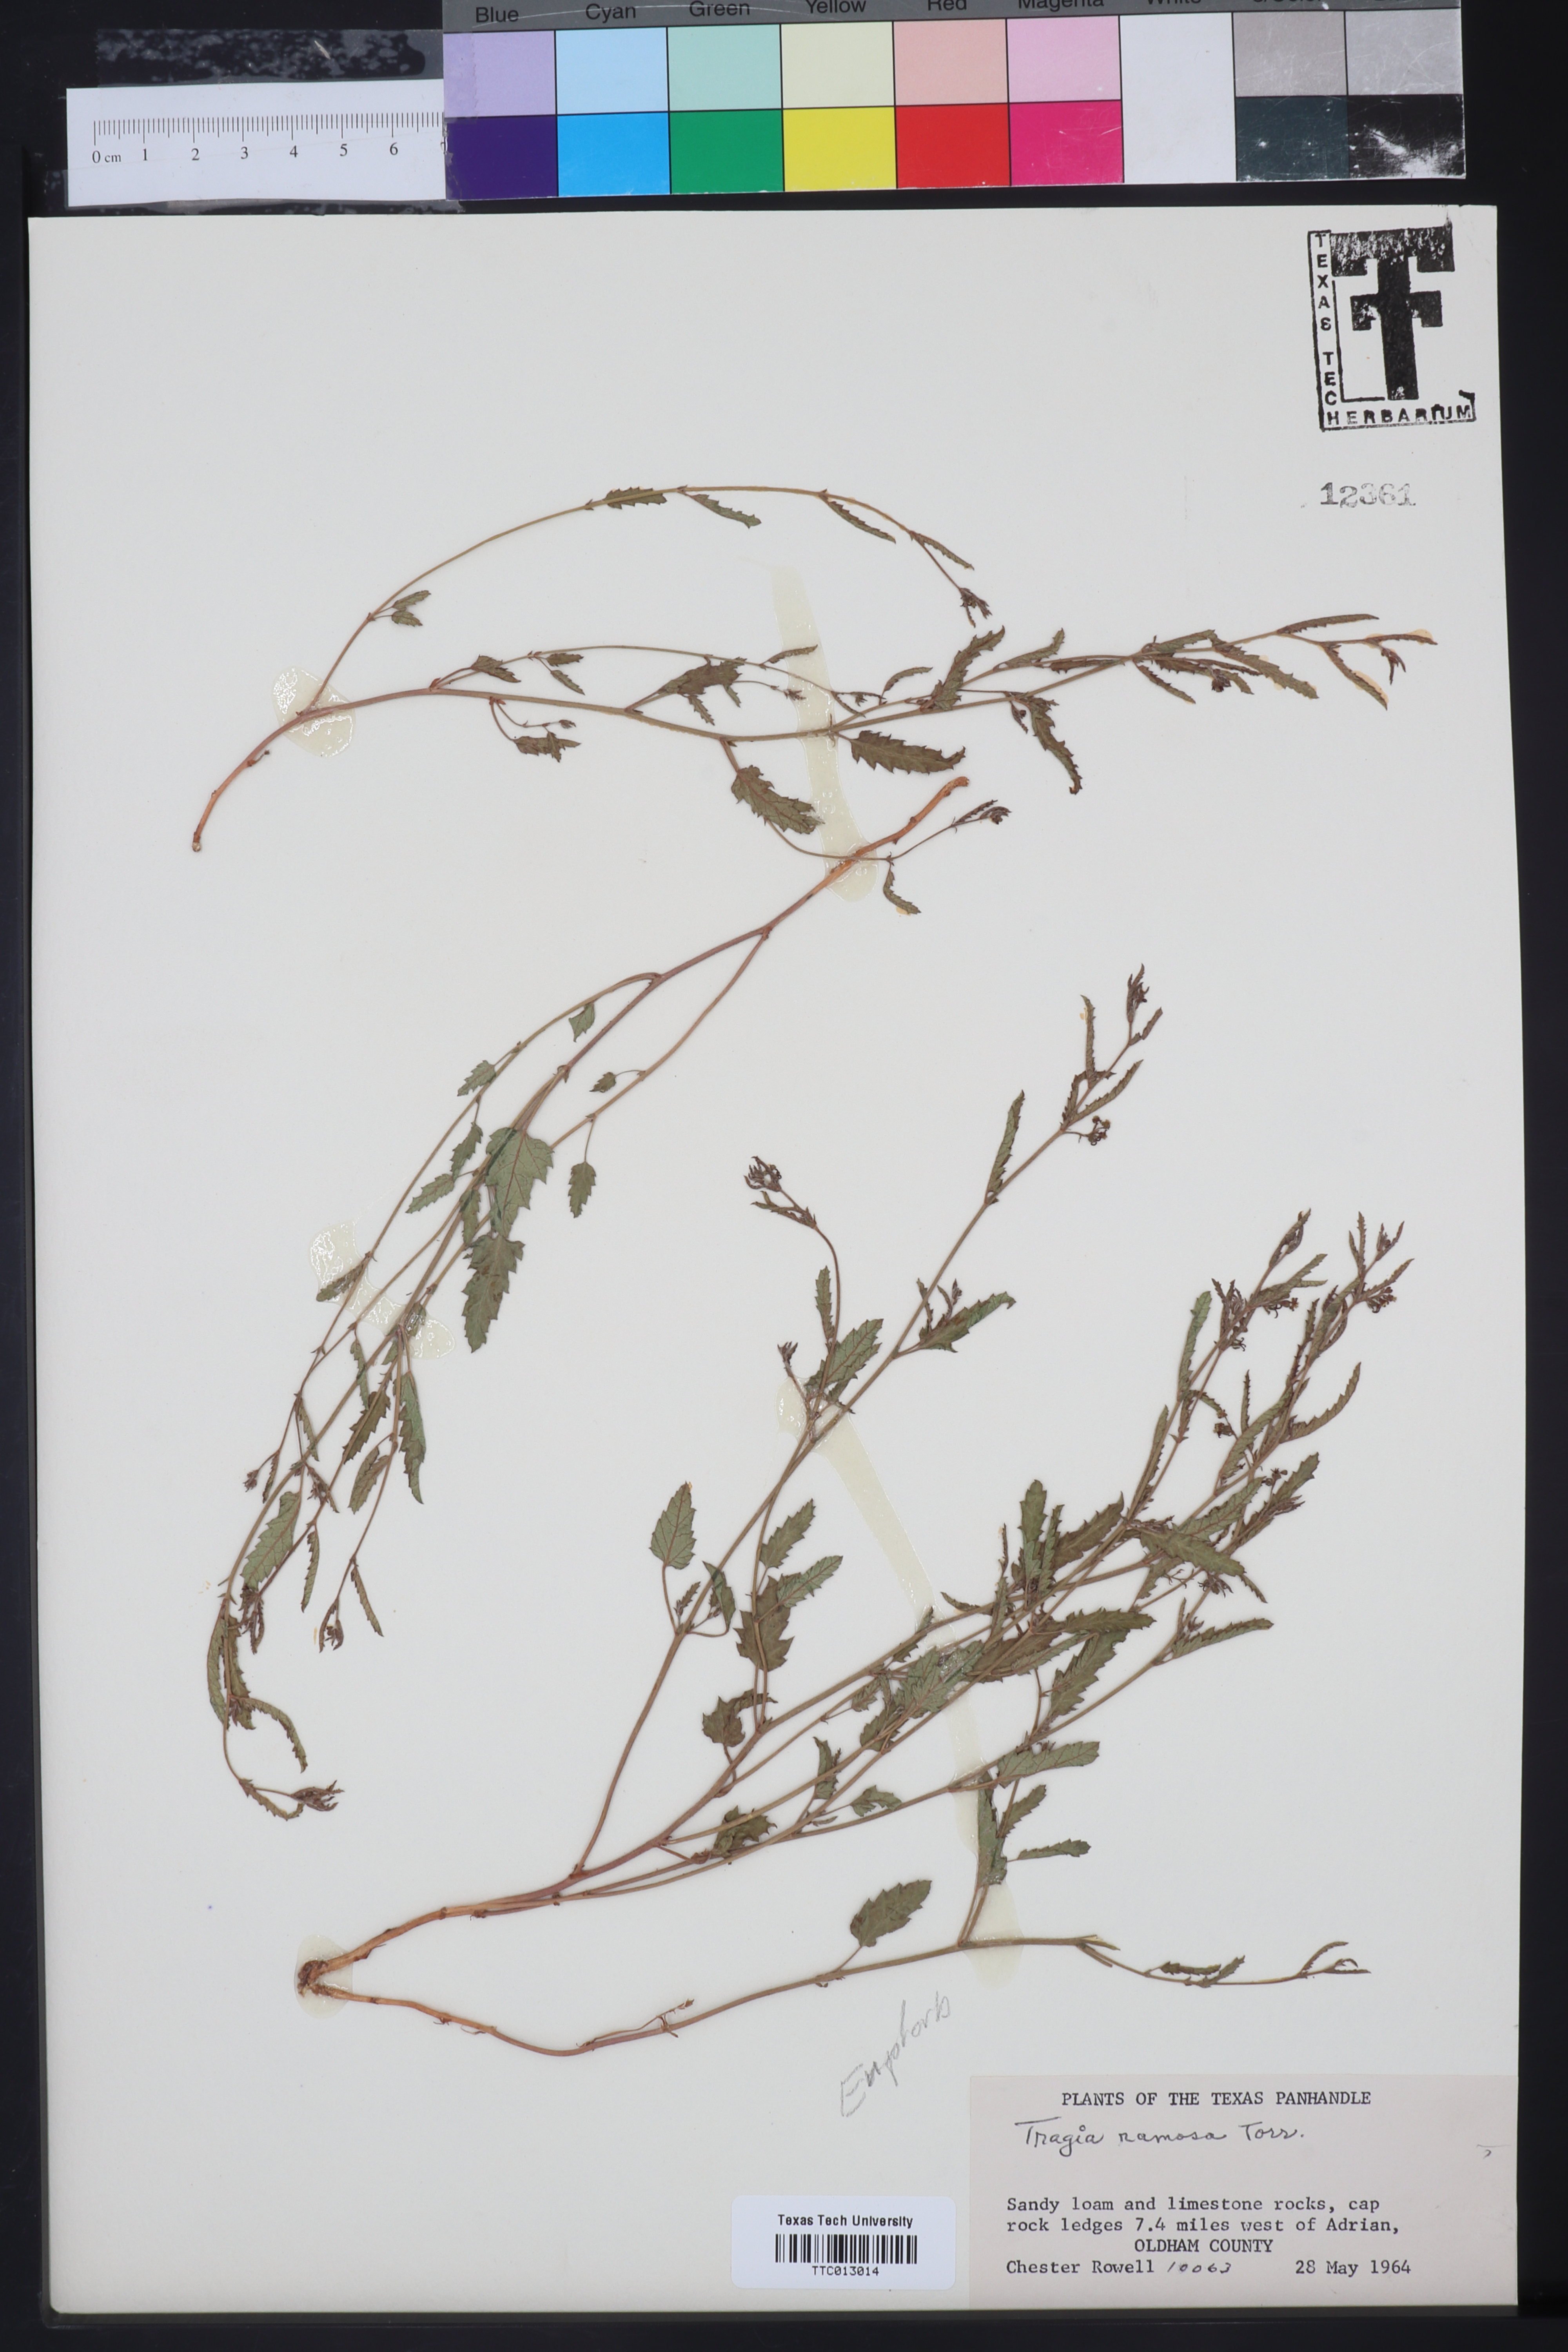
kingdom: Plantae
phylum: Tracheophyta
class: Magnoliopsida
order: Malpighiales
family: Euphorbiaceae
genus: Tragia
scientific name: Tragia ramosa
